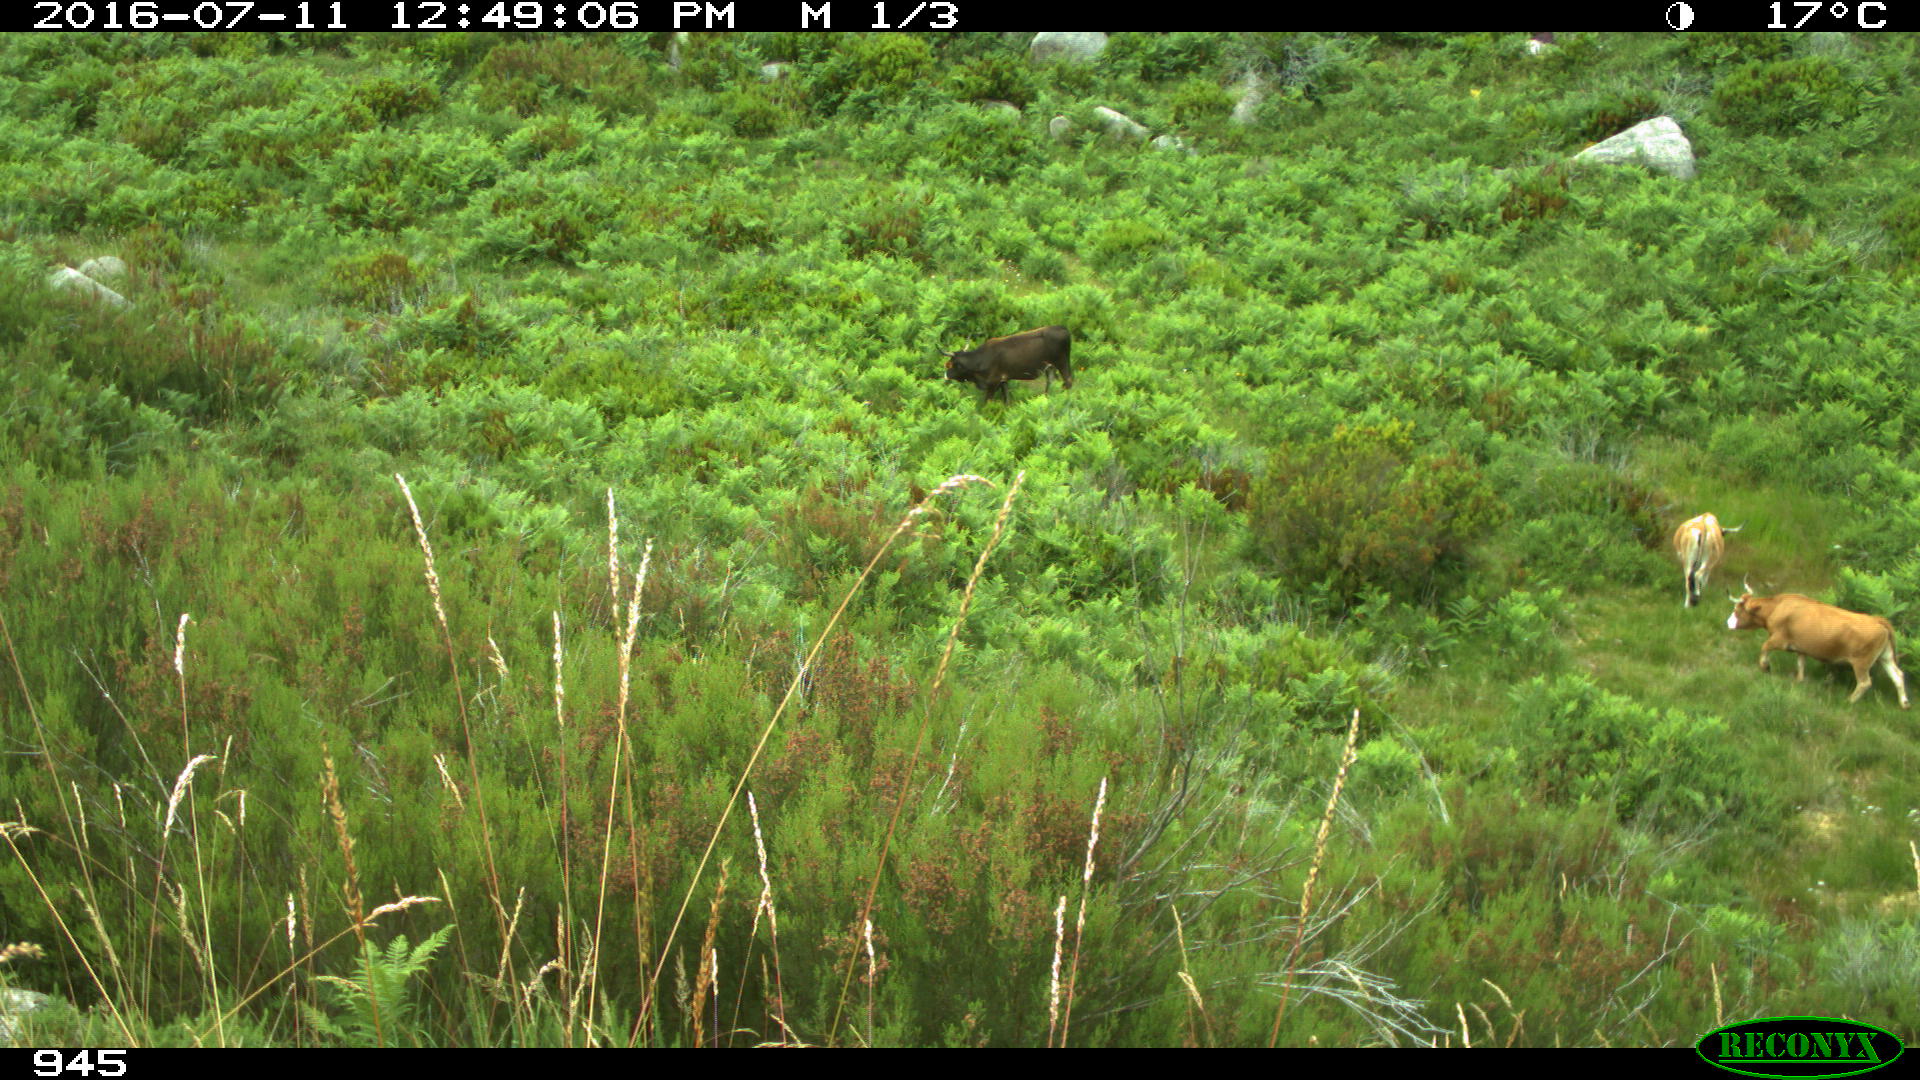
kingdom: Animalia
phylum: Chordata
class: Mammalia
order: Artiodactyla
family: Bovidae
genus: Bos
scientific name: Bos taurus
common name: Domesticated cattle
